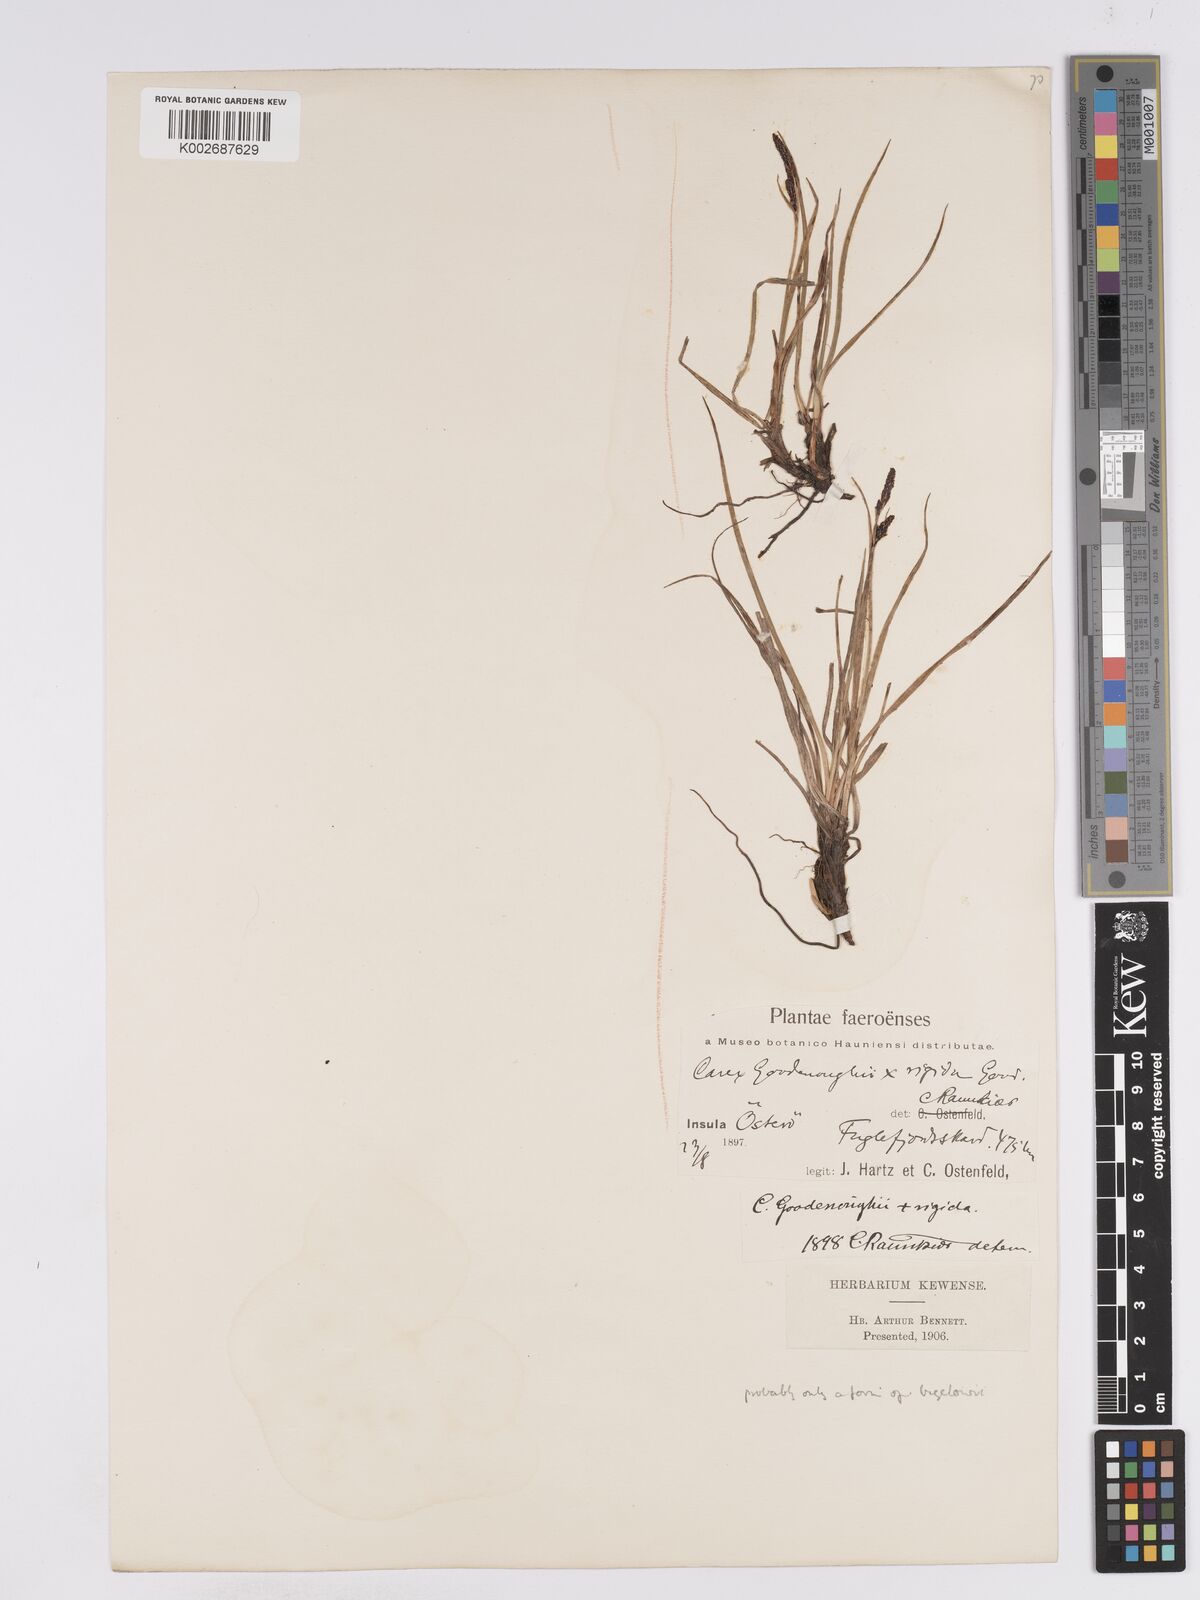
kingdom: Plantae
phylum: Tracheophyta
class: Liliopsida
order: Poales
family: Cyperaceae
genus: Carex
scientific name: Carex nigra
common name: Common sedge
